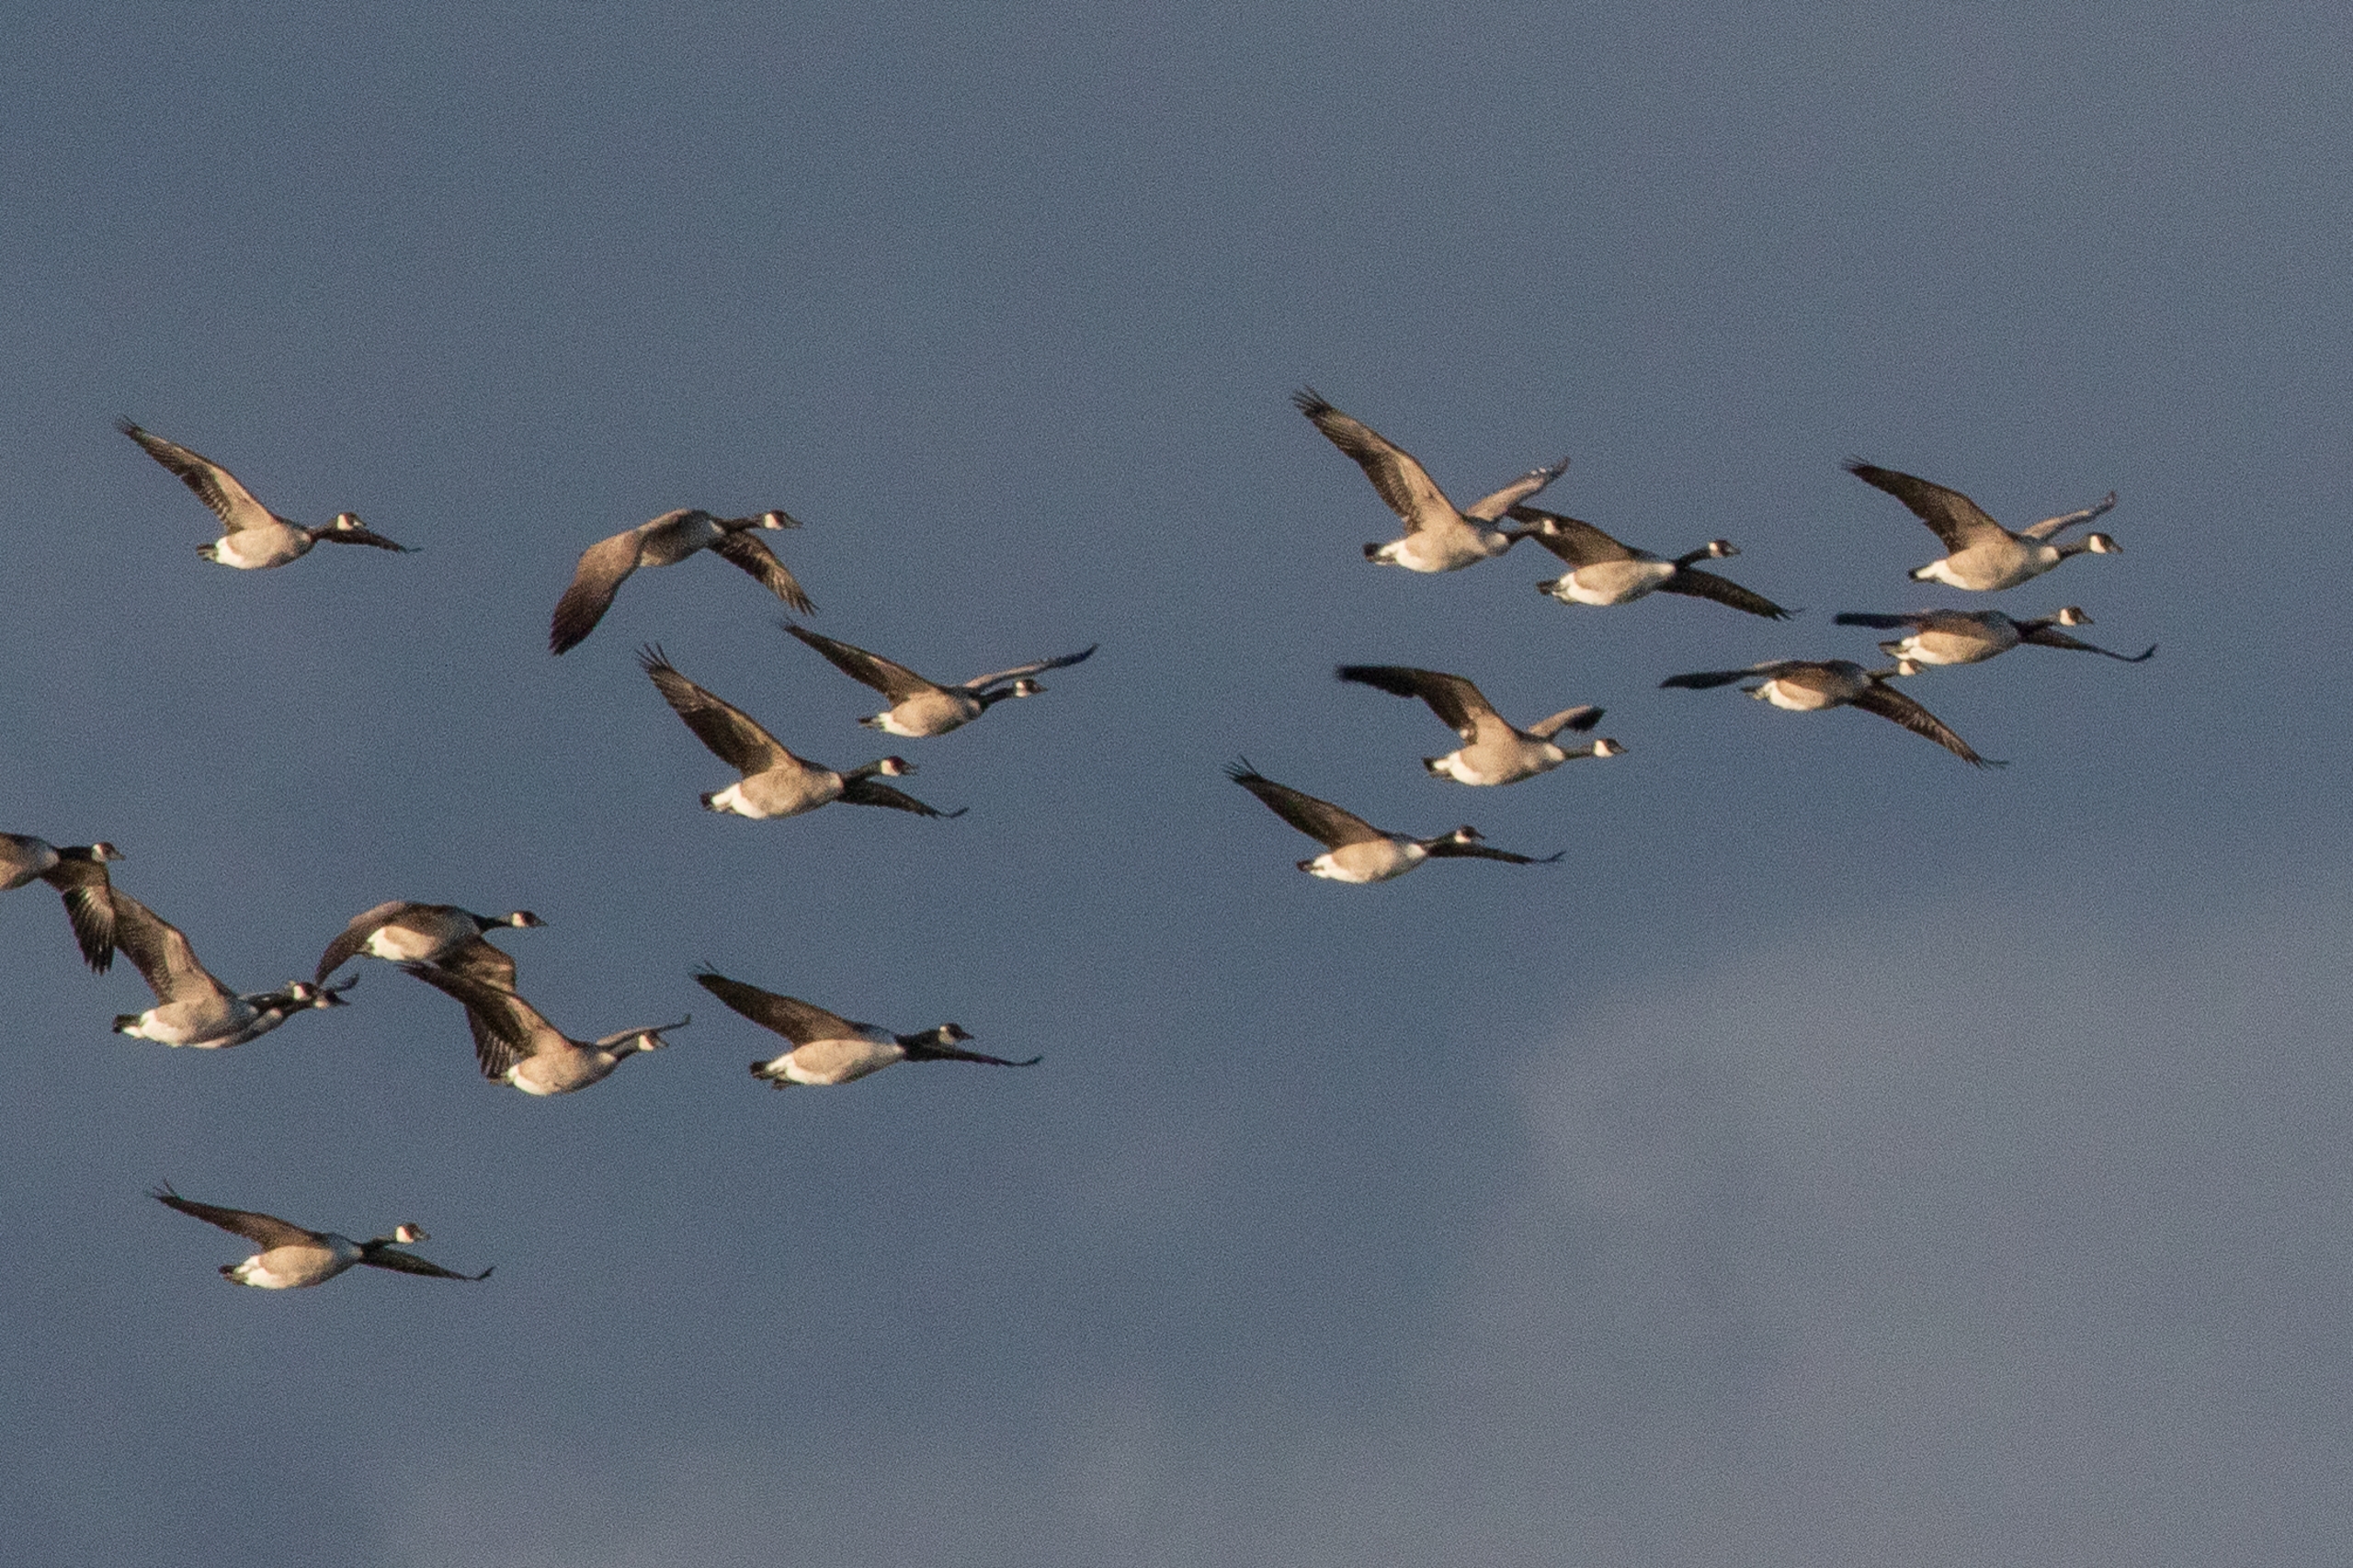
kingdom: Animalia
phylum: Chordata
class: Aves
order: Anseriformes
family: Anatidae
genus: Branta
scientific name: Branta canadensis
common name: Canadagås
